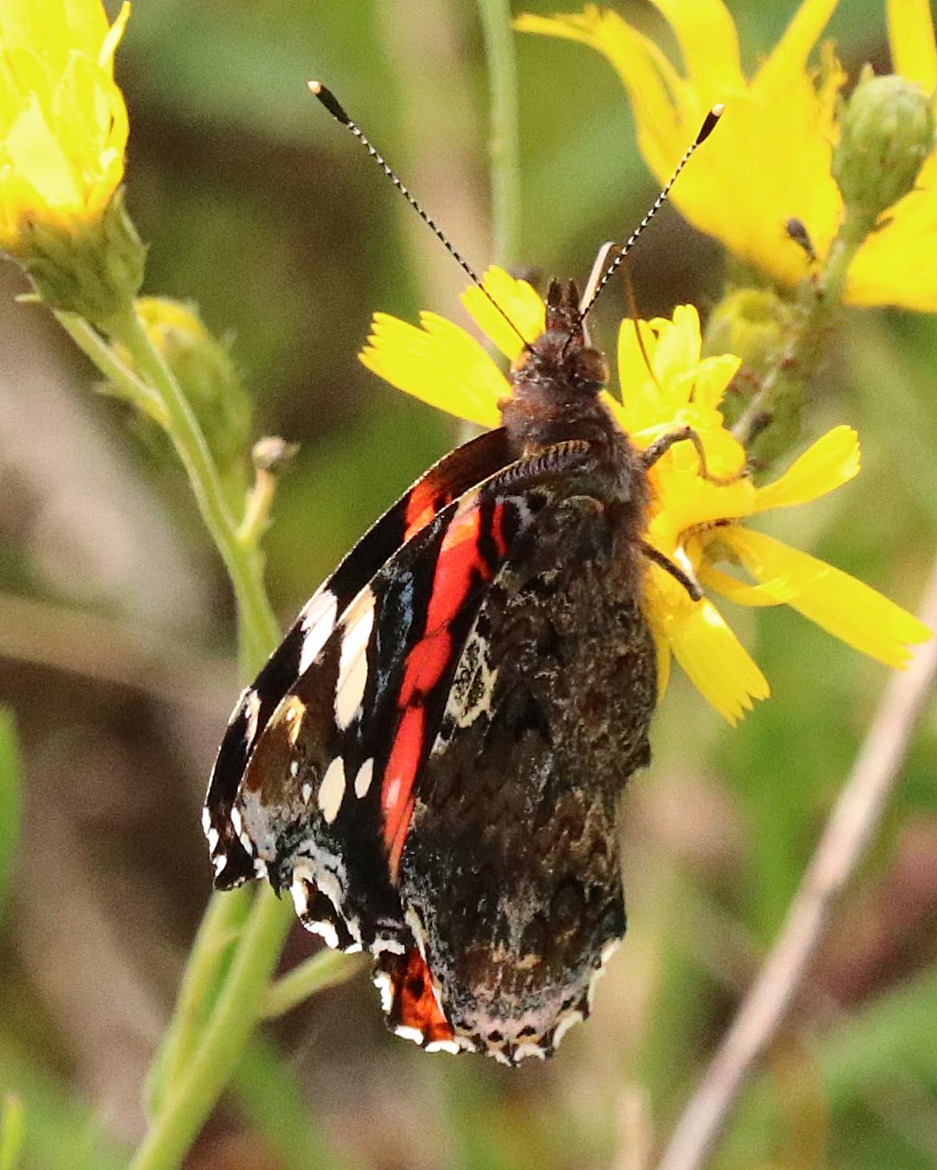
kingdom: Animalia
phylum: Arthropoda
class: Insecta
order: Lepidoptera
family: Nymphalidae
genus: Vanessa
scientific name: Vanessa atalanta
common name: Admiral
